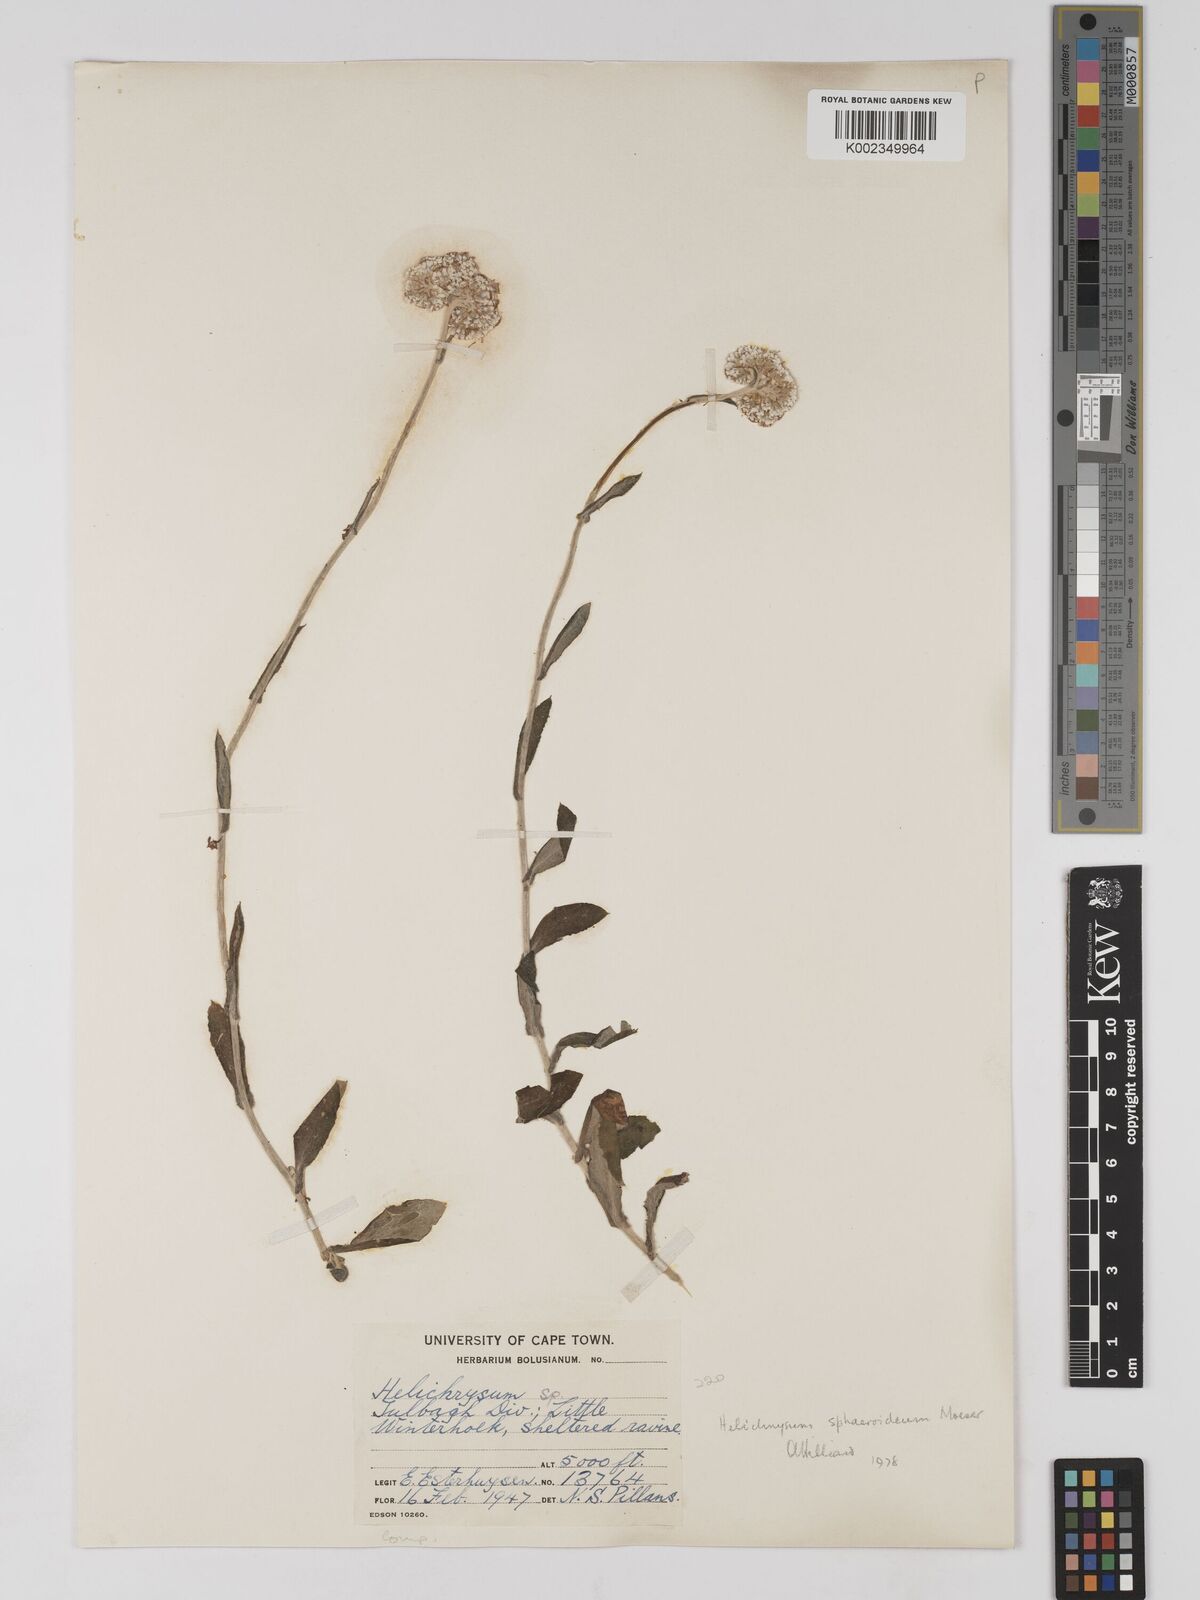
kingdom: Plantae
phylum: Tracheophyta
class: Magnoliopsida
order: Asterales
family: Asteraceae
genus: Helichrysum
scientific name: Helichrysum sphaeroideum
